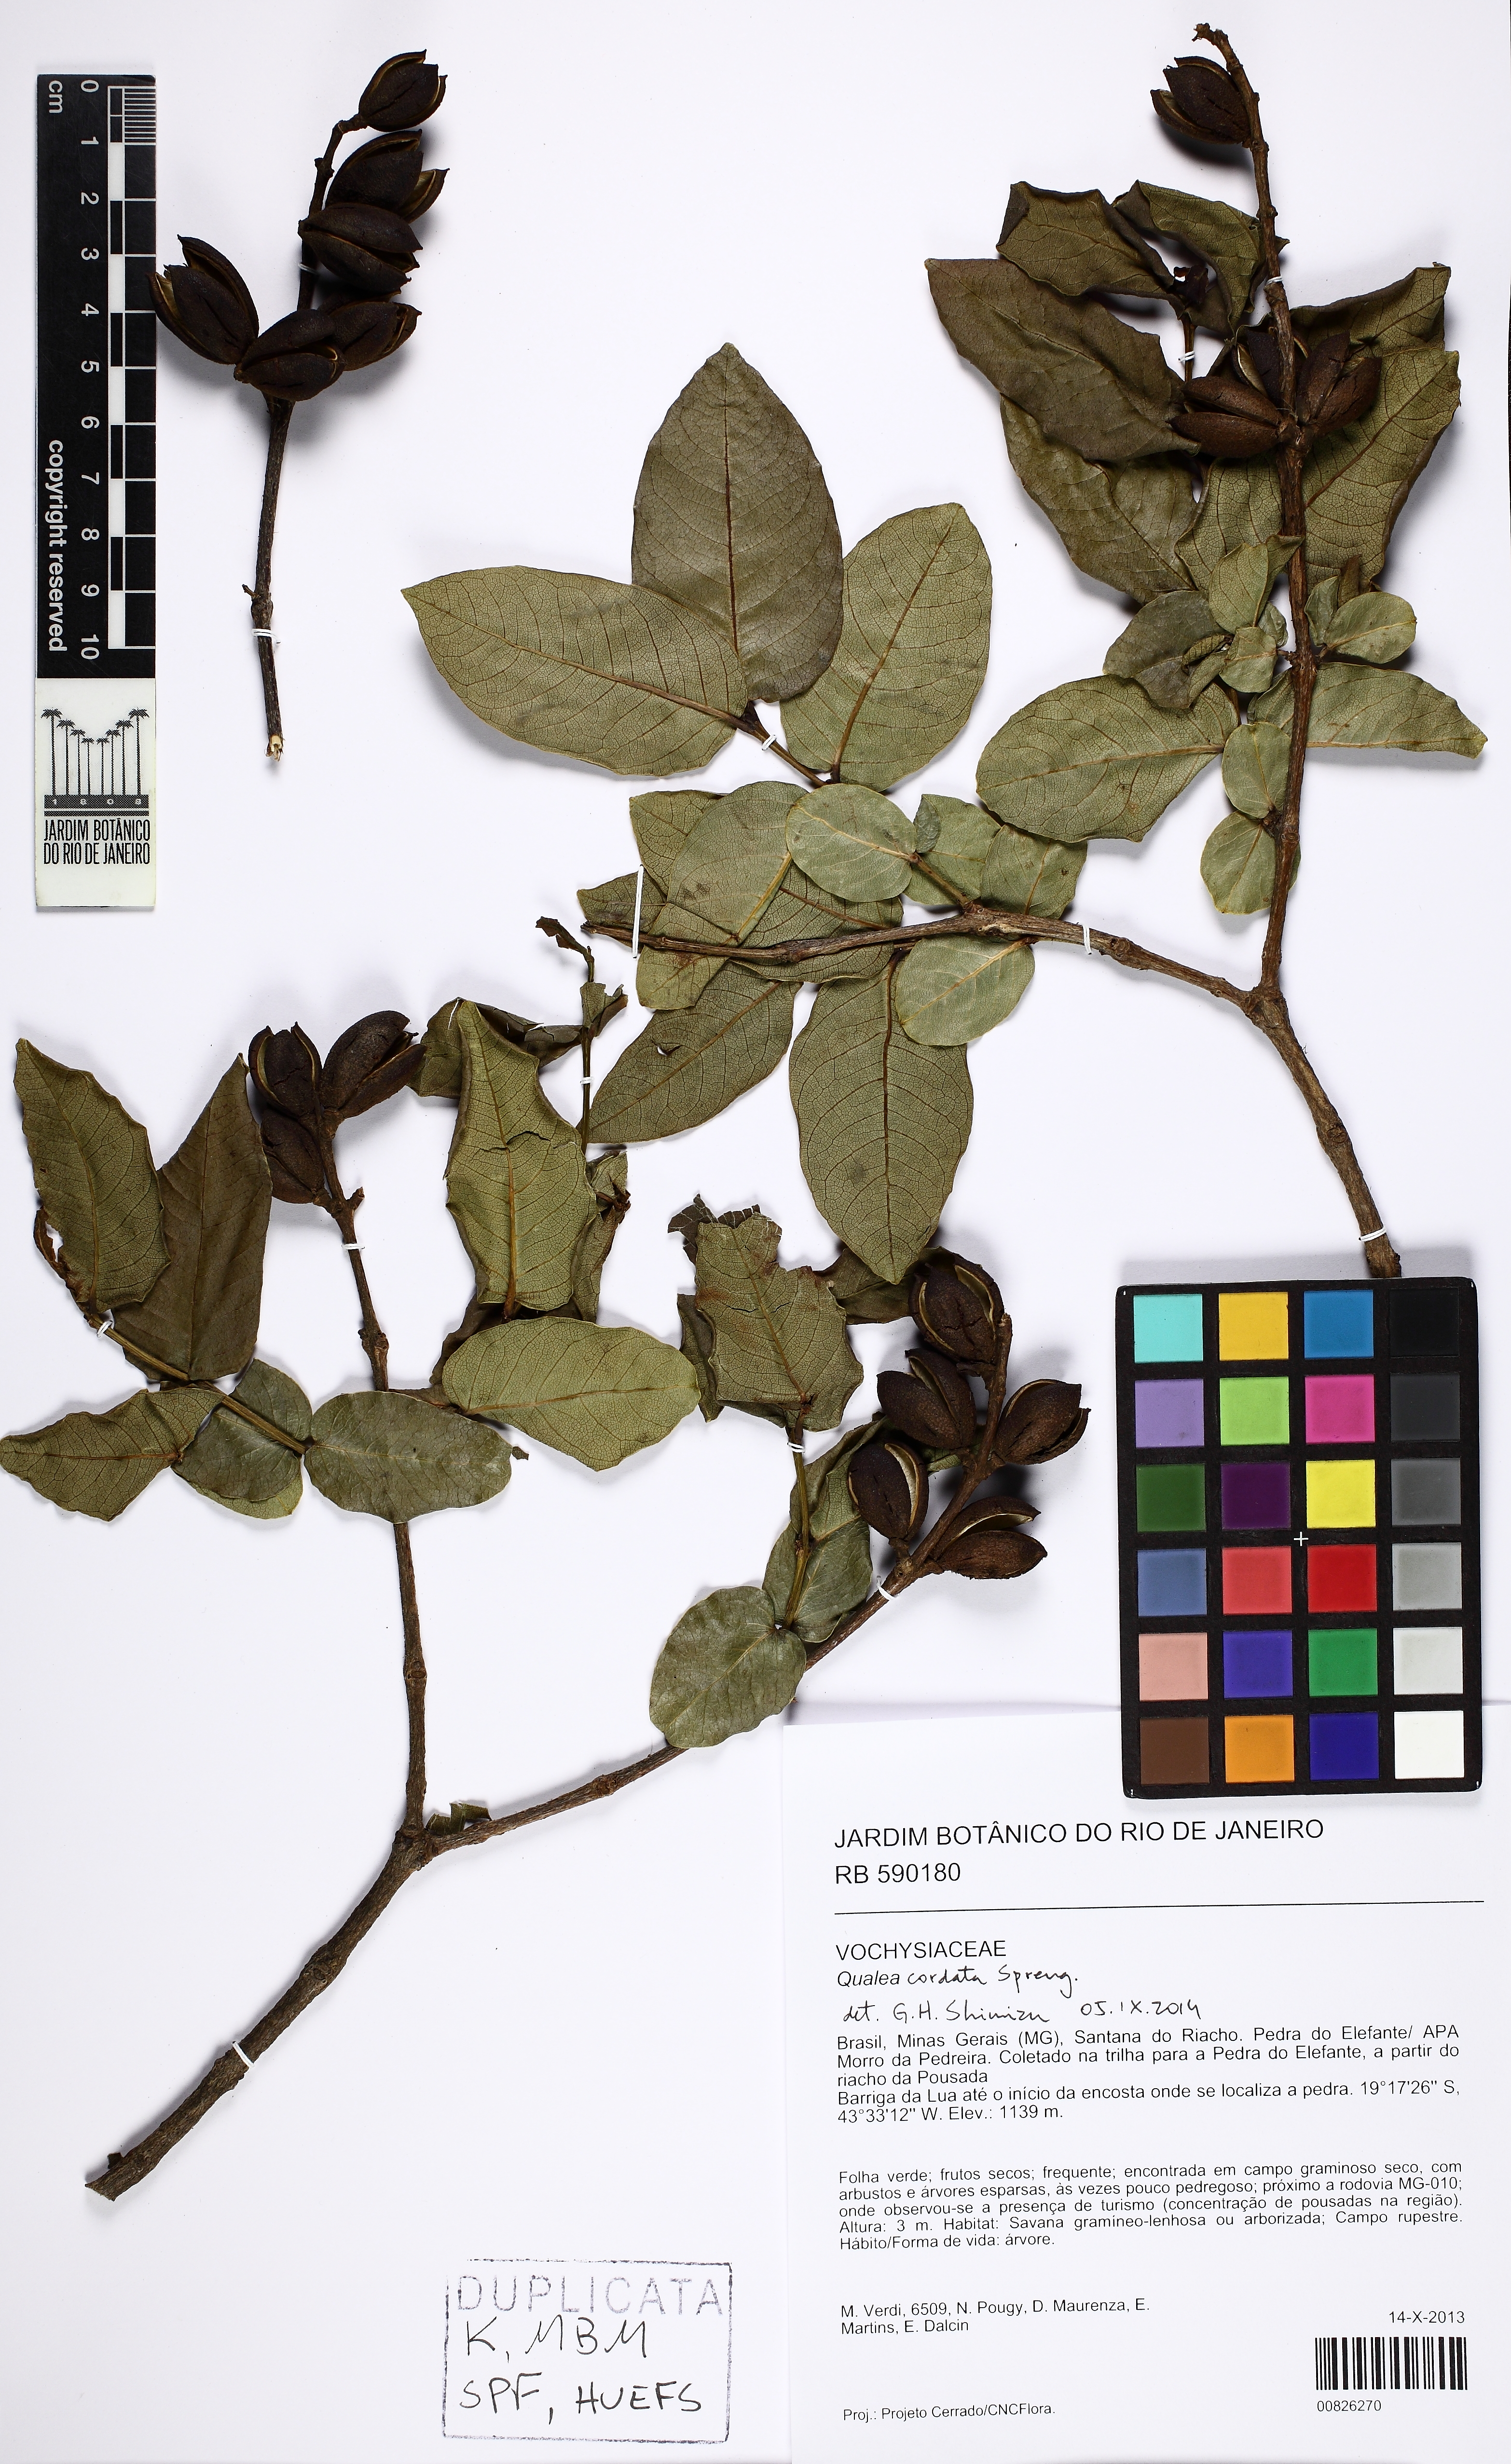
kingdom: Plantae
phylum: Tracheophyta
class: Magnoliopsida
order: Myrtales
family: Vochysiaceae
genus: Qualea
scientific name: Qualea cordata
